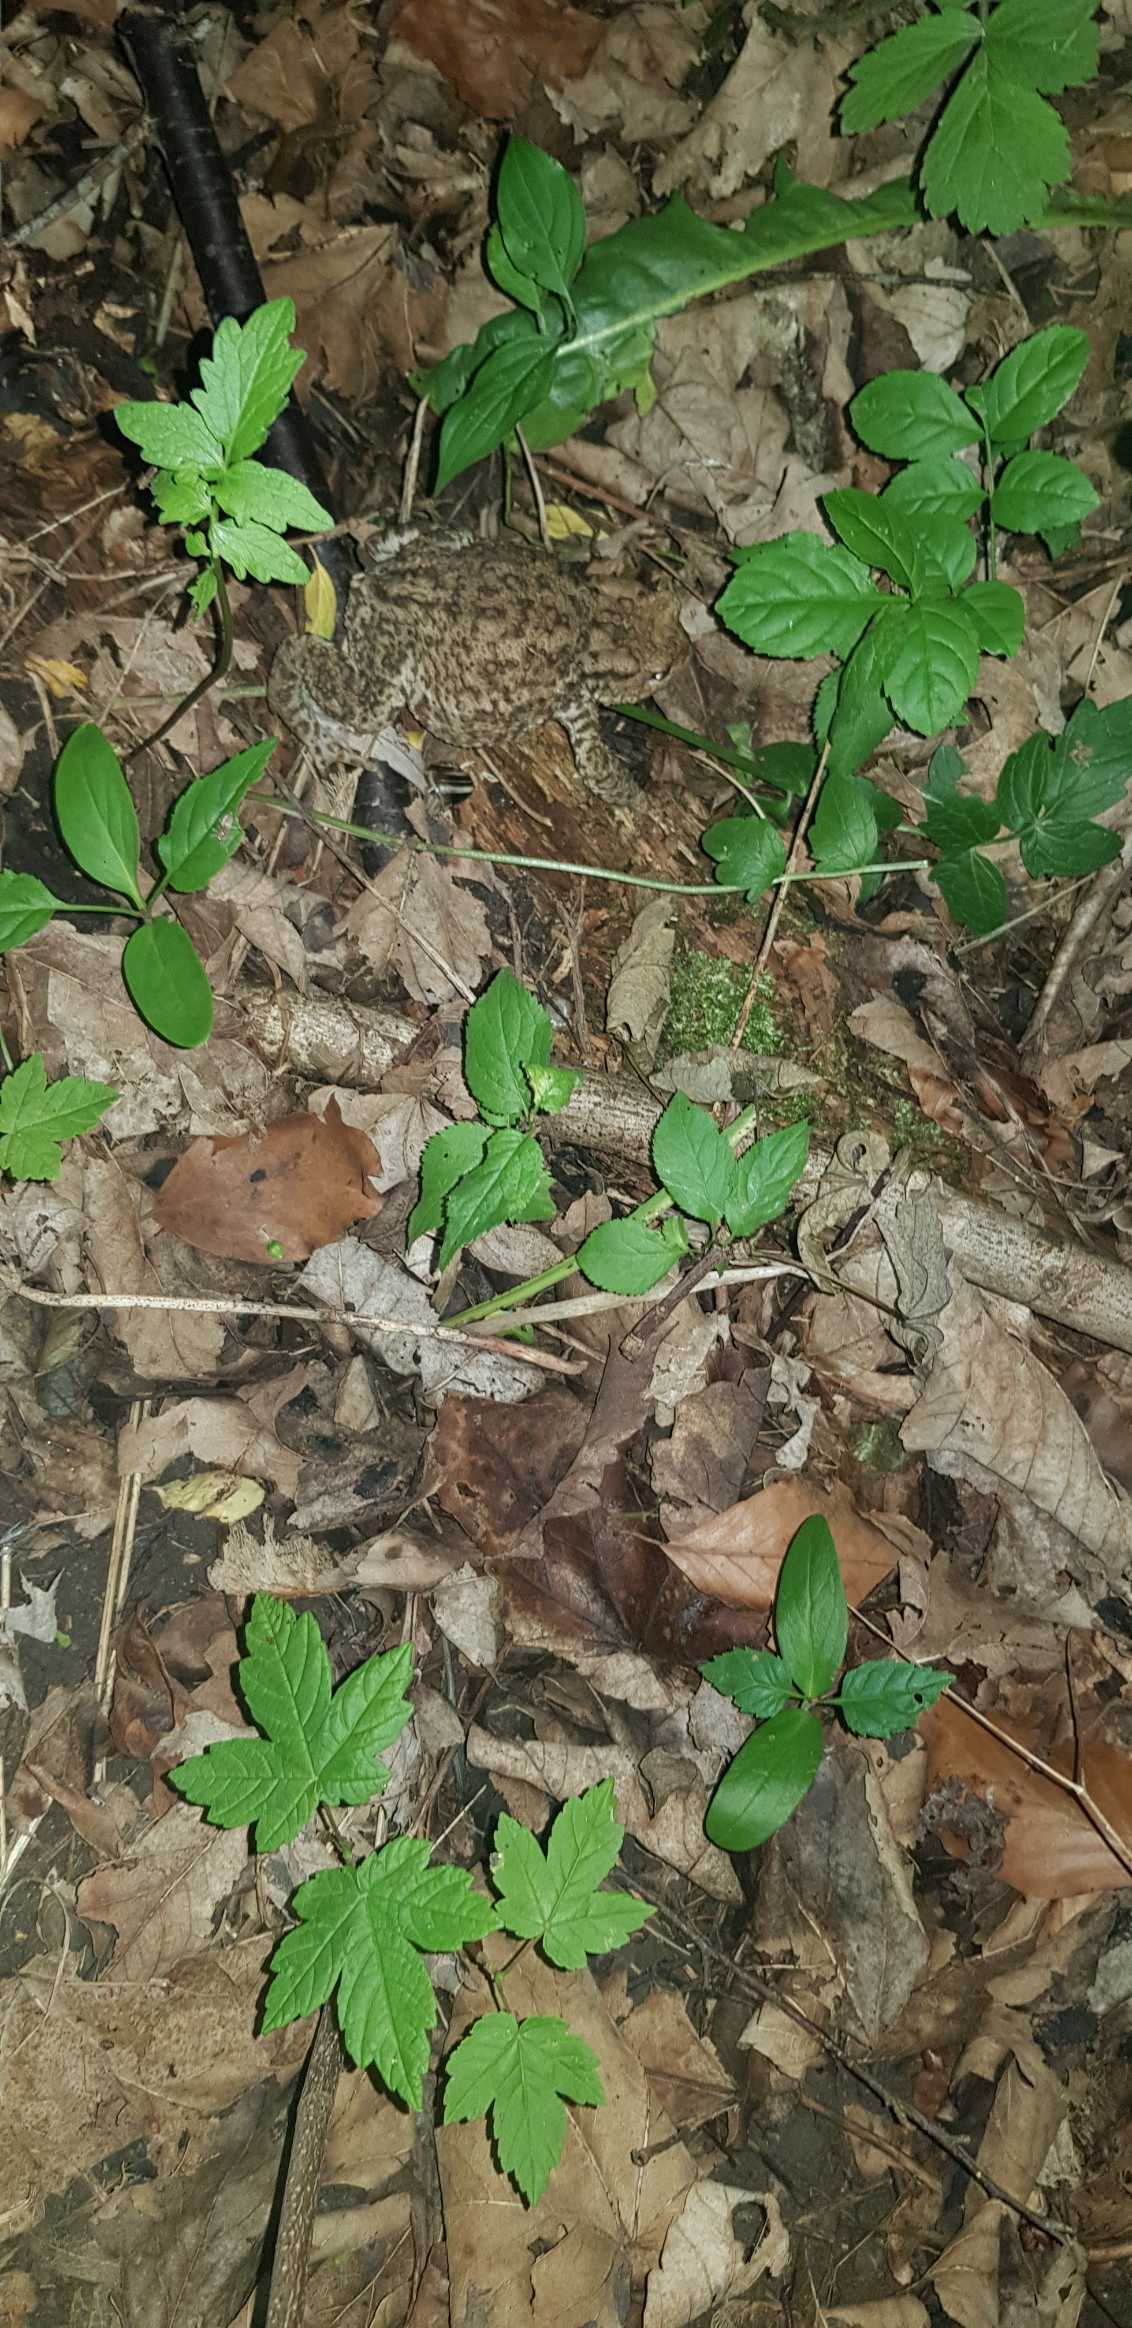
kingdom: Animalia
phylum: Chordata
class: Amphibia
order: Anura
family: Bufonidae
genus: Bufo
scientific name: Bufo bufo
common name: Skrubtudse
